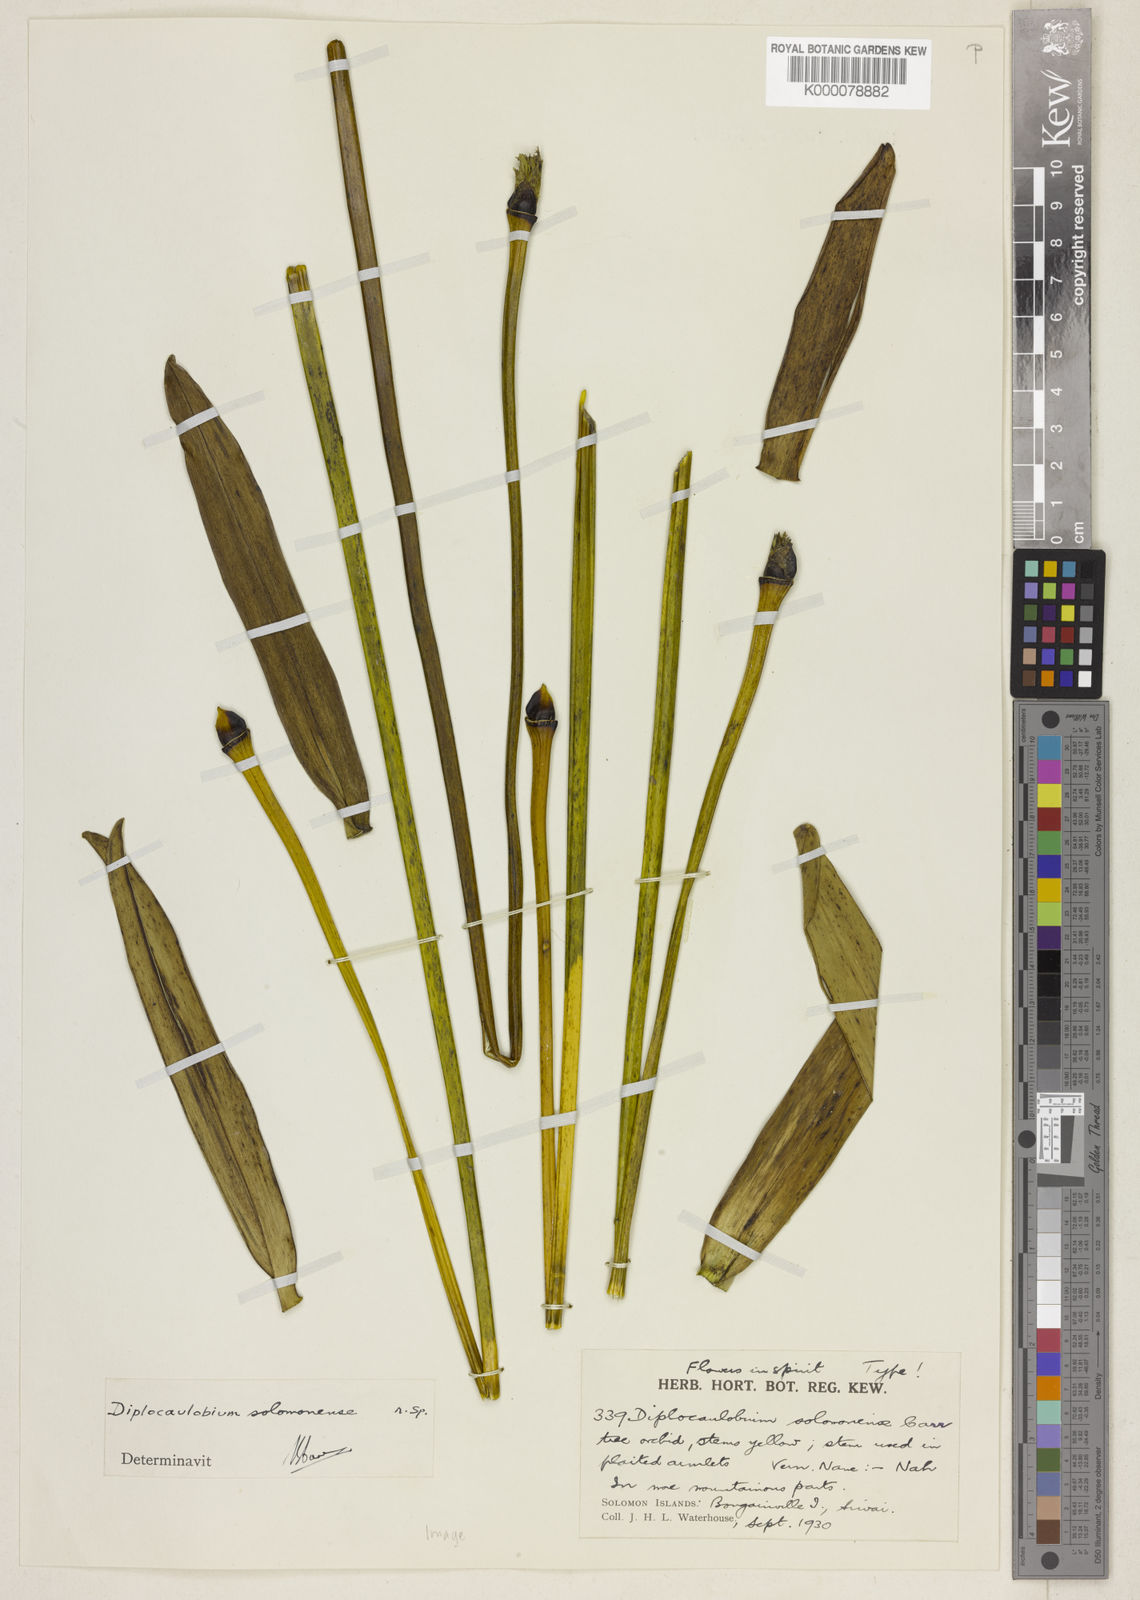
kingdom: Plantae
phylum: Tracheophyta
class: Liliopsida
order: Asparagales
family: Orchidaceae
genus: Dendrobium
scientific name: Dendrobium solomonense
